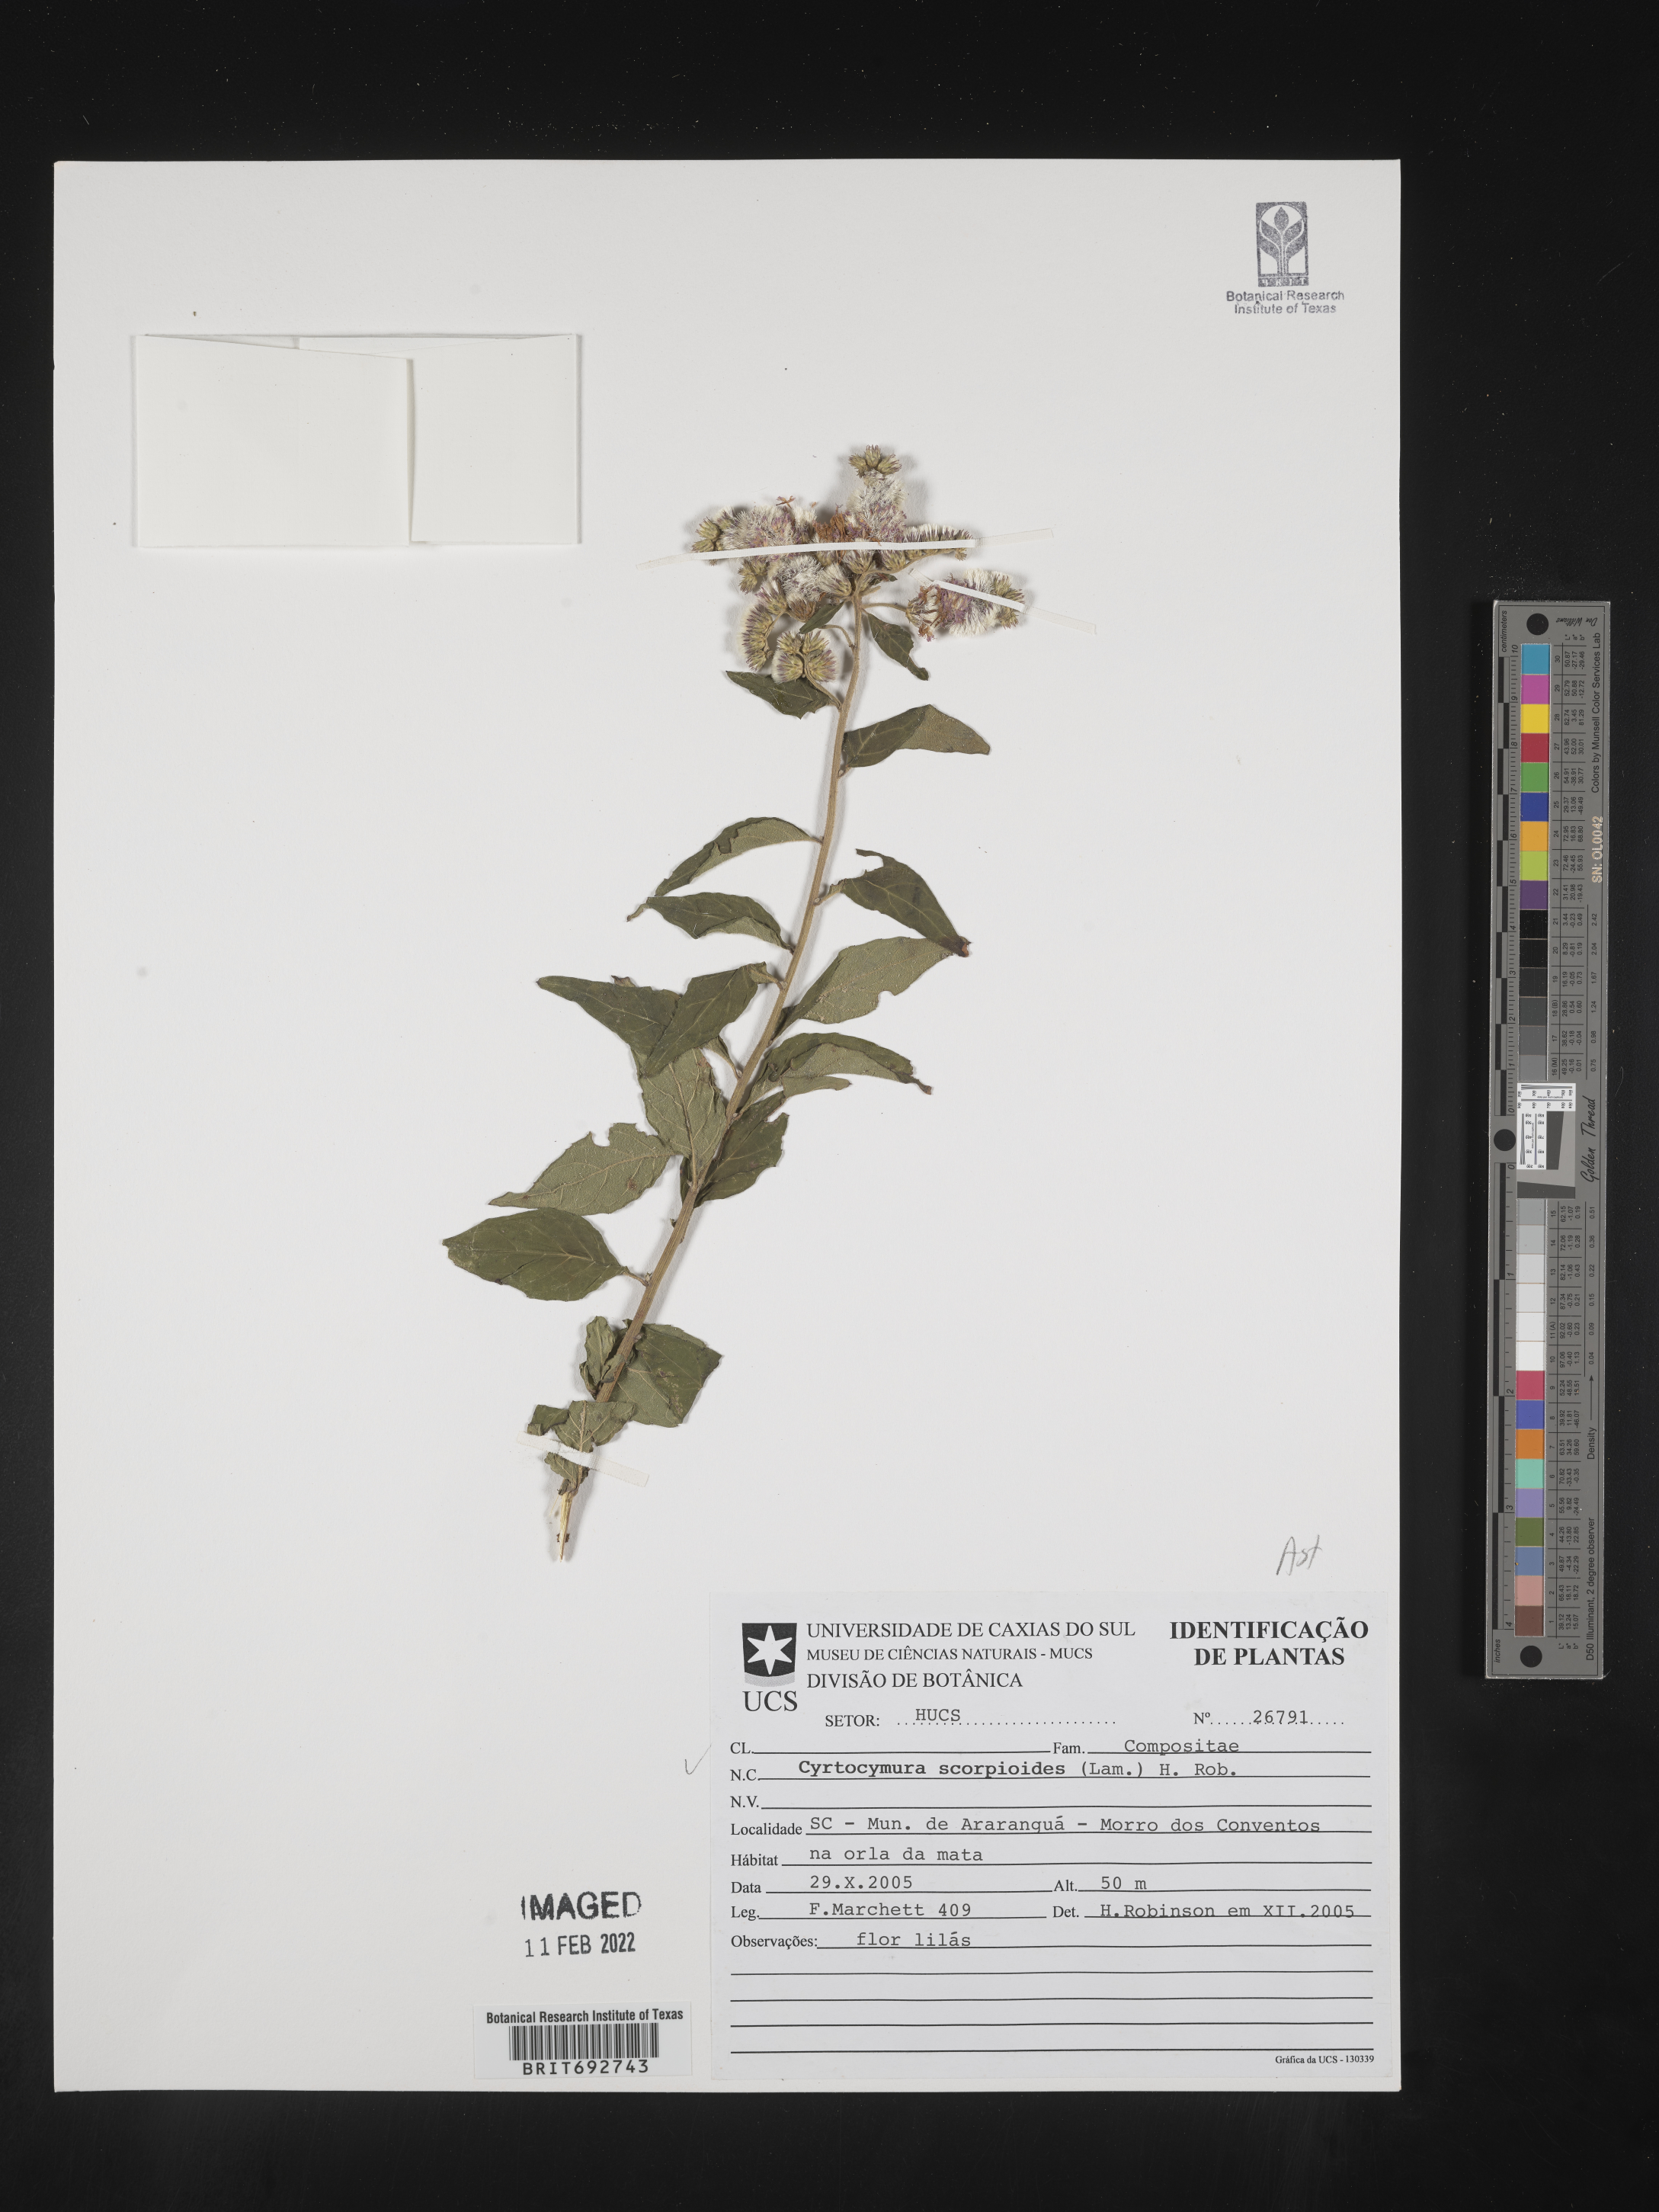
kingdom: Plantae
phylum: Tracheophyta
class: Magnoliopsida
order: Asterales
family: Asteraceae
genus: Cyrtocymura
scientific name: Cyrtocymura
